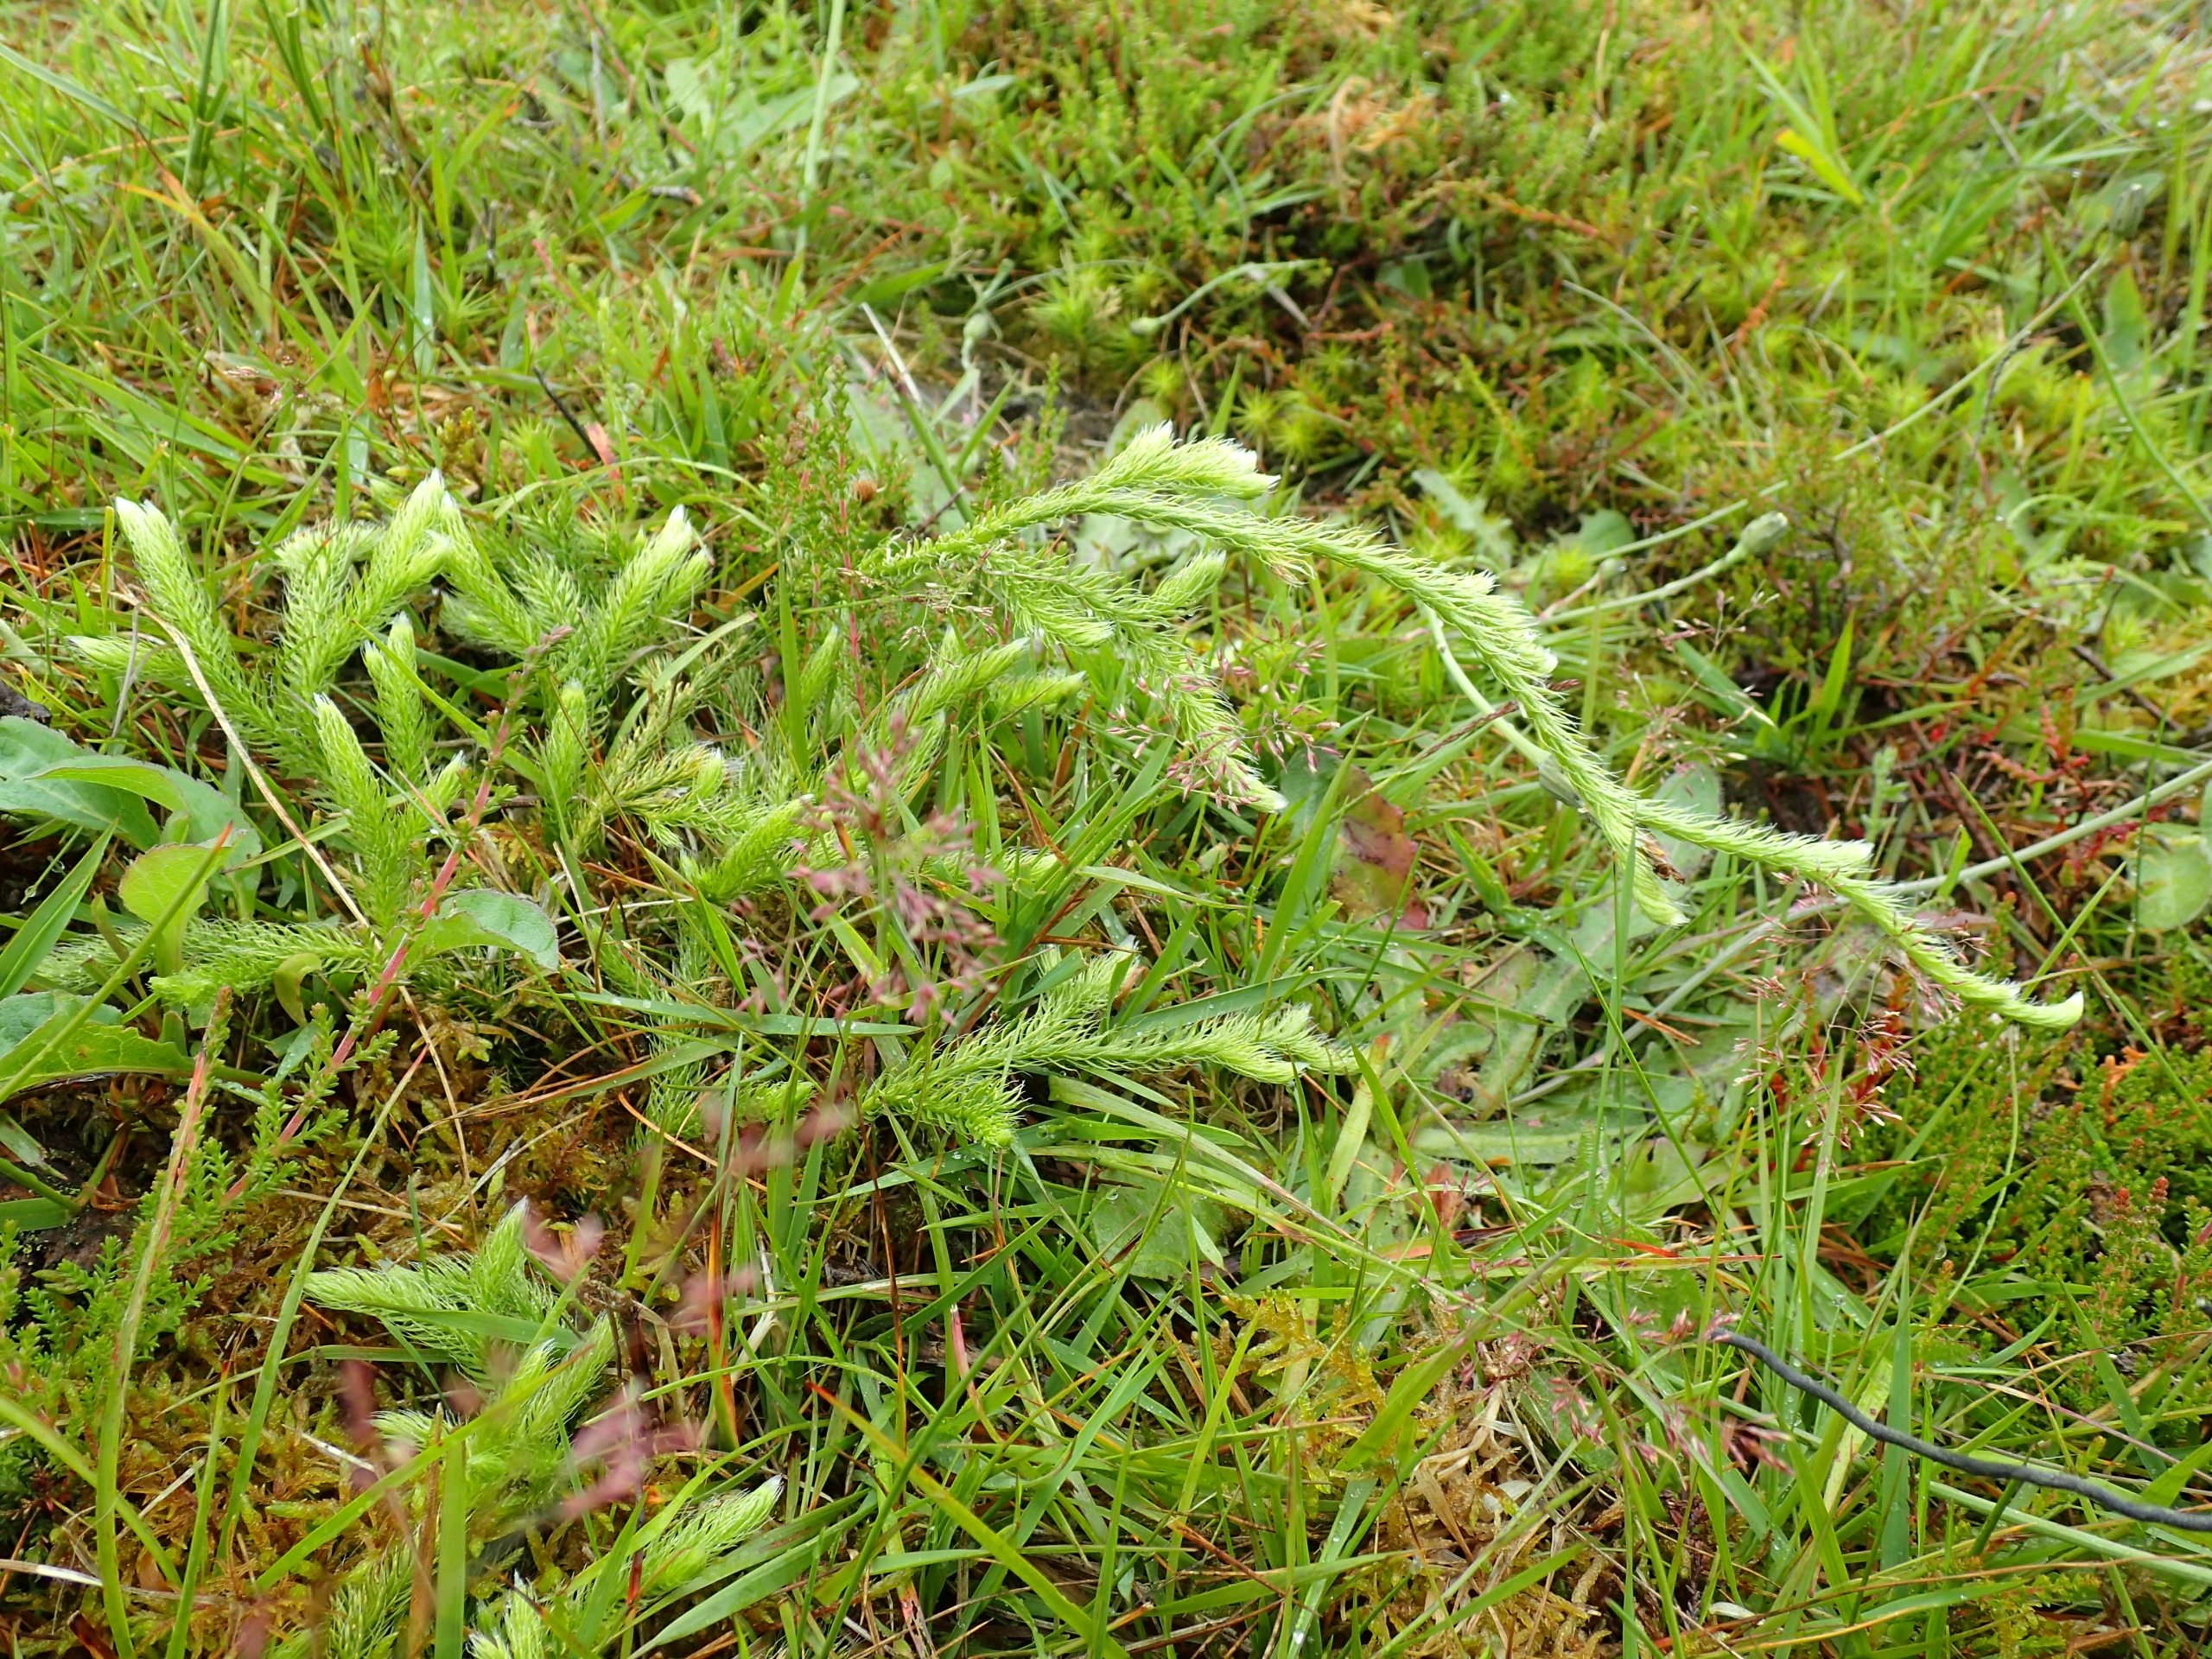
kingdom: Plantae
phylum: Tracheophyta
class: Lycopodiopsida
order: Lycopodiales
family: Lycopodiaceae
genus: Lycopodium
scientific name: Lycopodium clavatum
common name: Almindelig ulvefod
